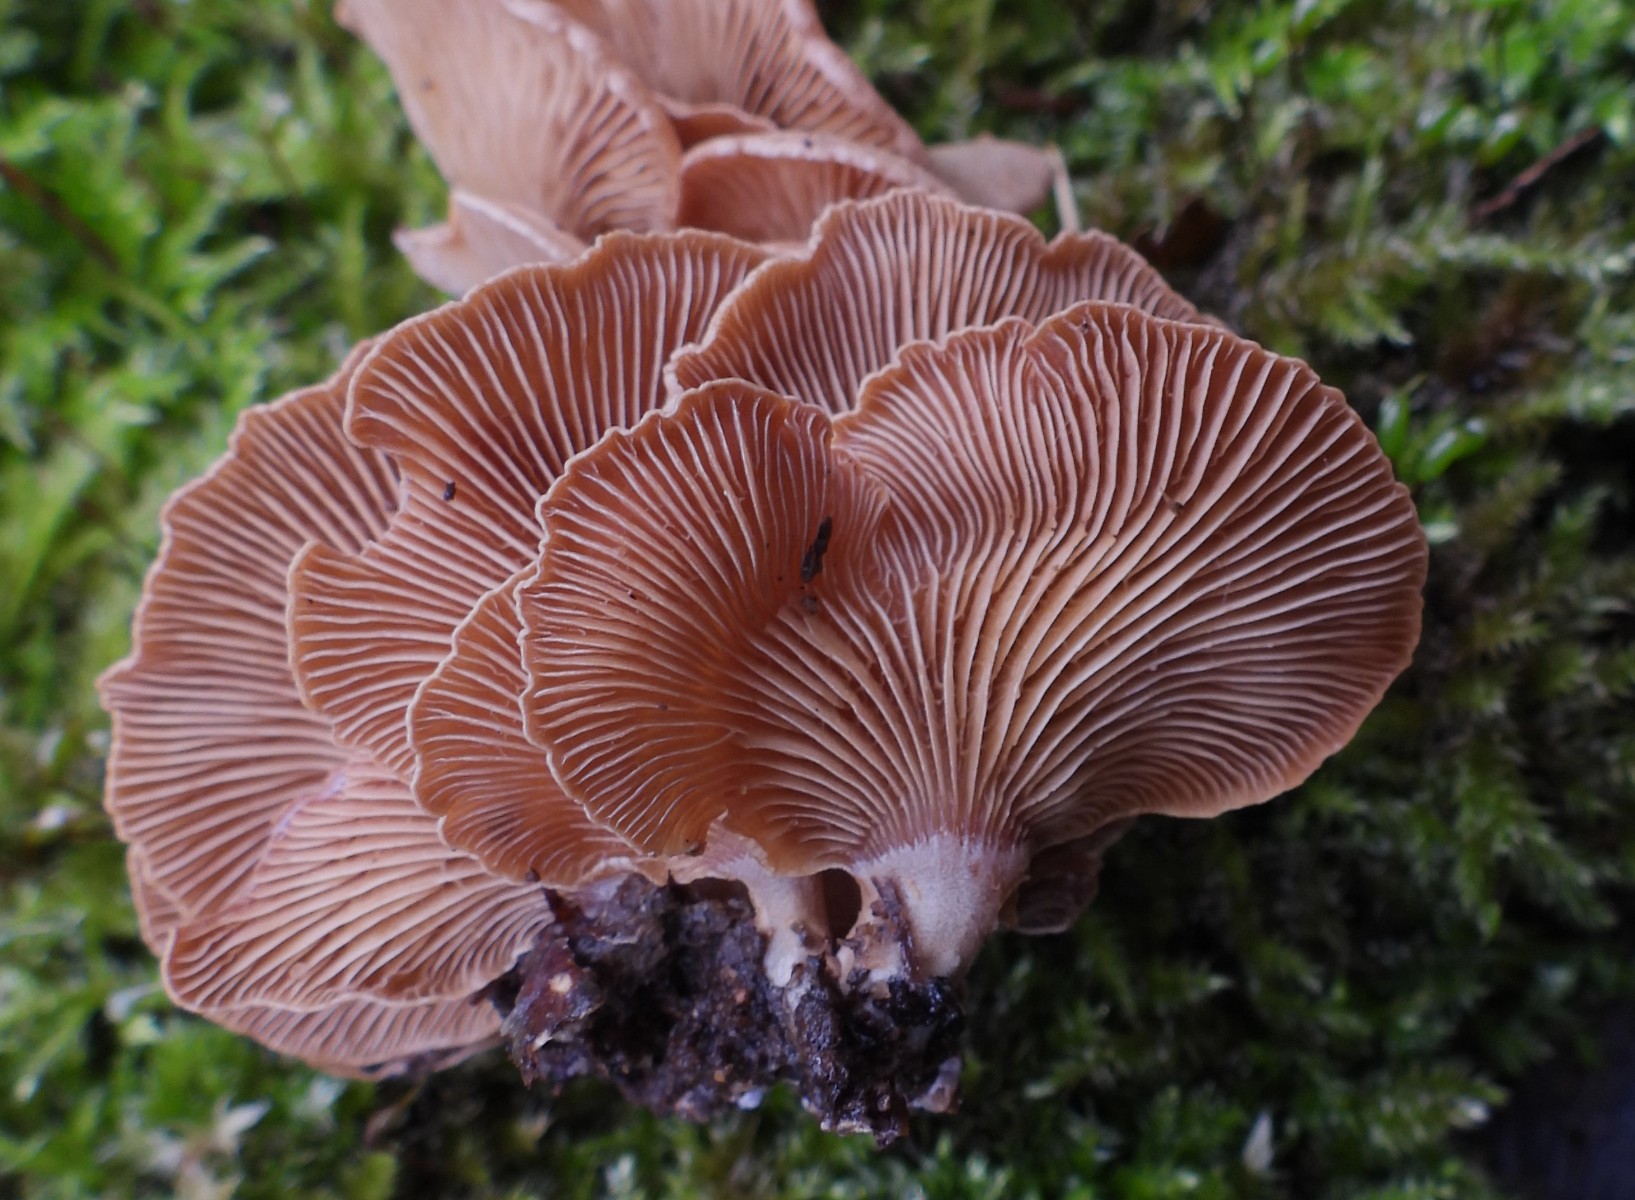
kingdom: Fungi
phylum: Basidiomycota
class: Agaricomycetes
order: Agaricales
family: Mycenaceae
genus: Panellus
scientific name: Panellus stipticus
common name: kliddet epaulethat
